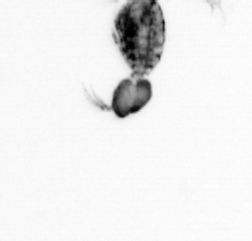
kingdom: Animalia
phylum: Arthropoda
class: Copepoda
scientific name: Copepoda
